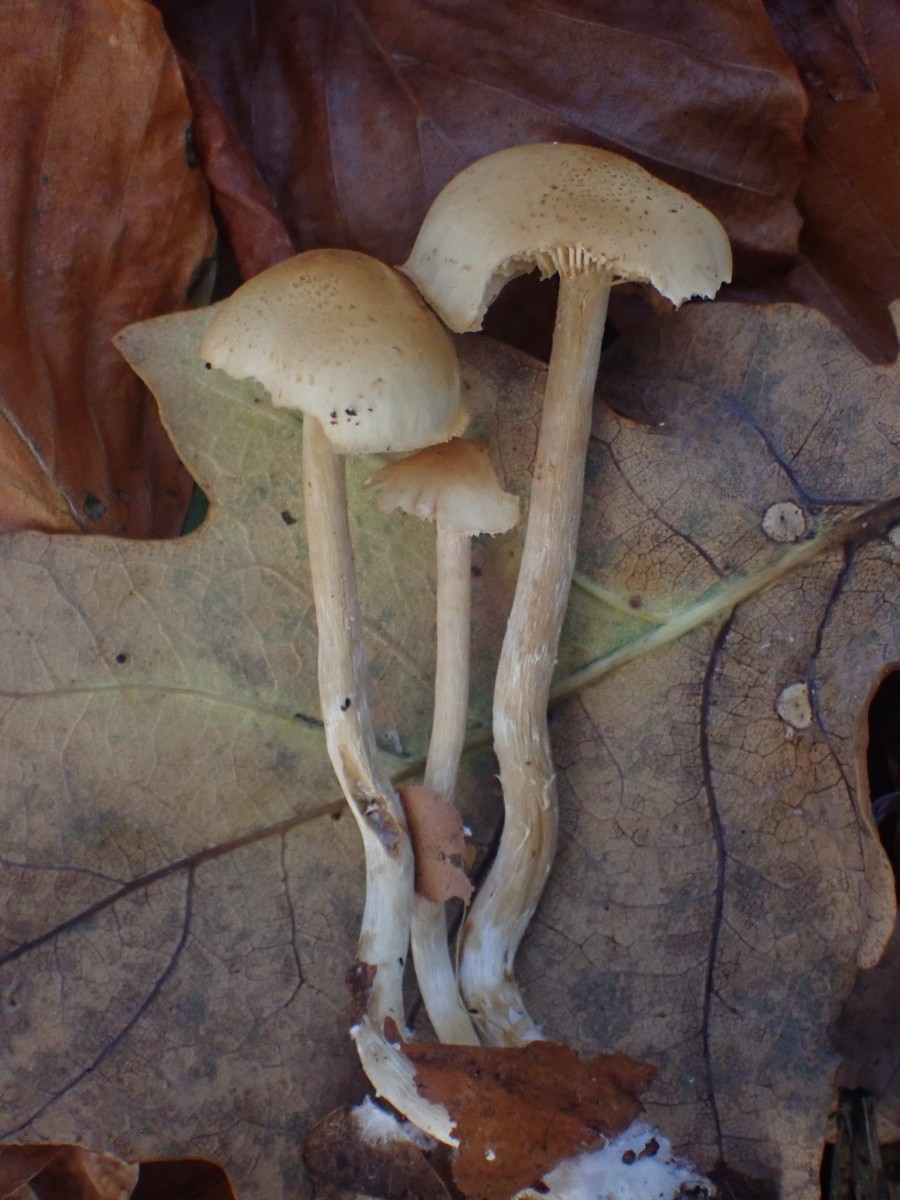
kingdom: Fungi
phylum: Basidiomycota
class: Agaricomycetes
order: Agaricales
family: Inocybaceae
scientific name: Inocybaceae
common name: trævlhatfamilien
